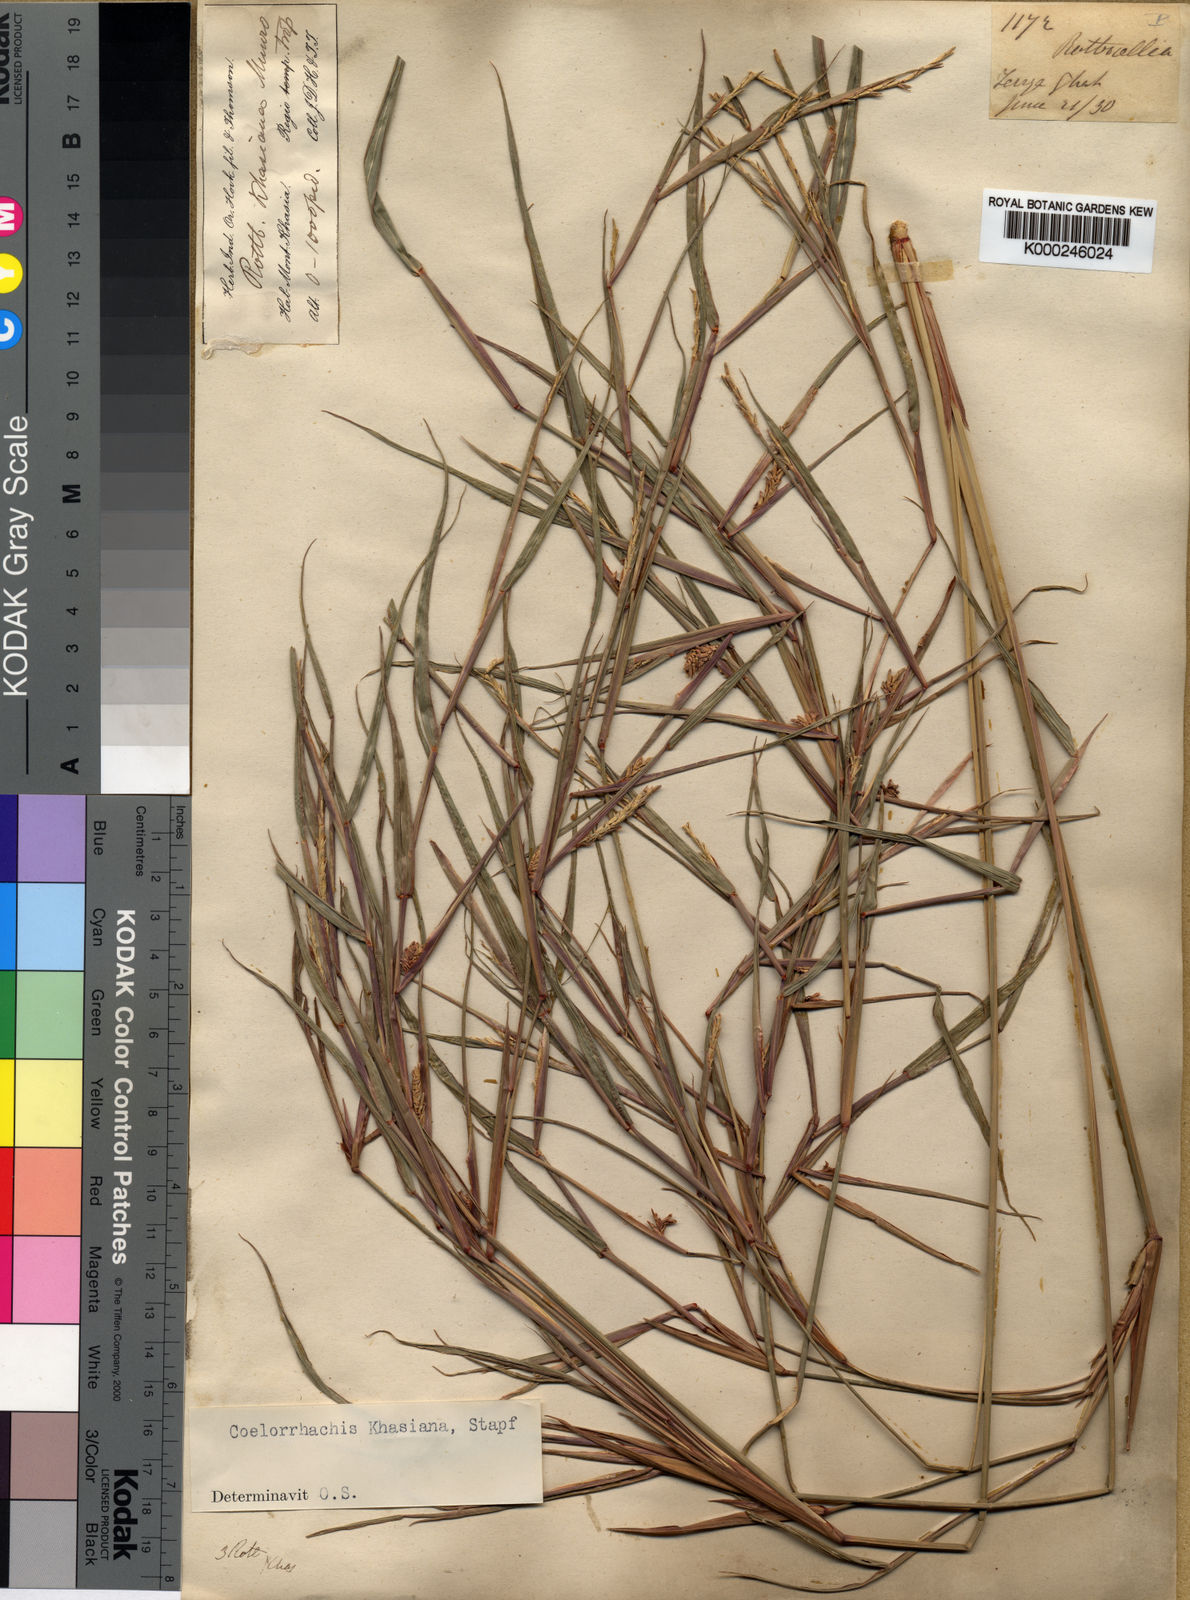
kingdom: Plantae
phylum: Tracheophyta
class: Liliopsida
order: Poales
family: Poaceae
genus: Rottboellia
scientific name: Rottboellia striata
